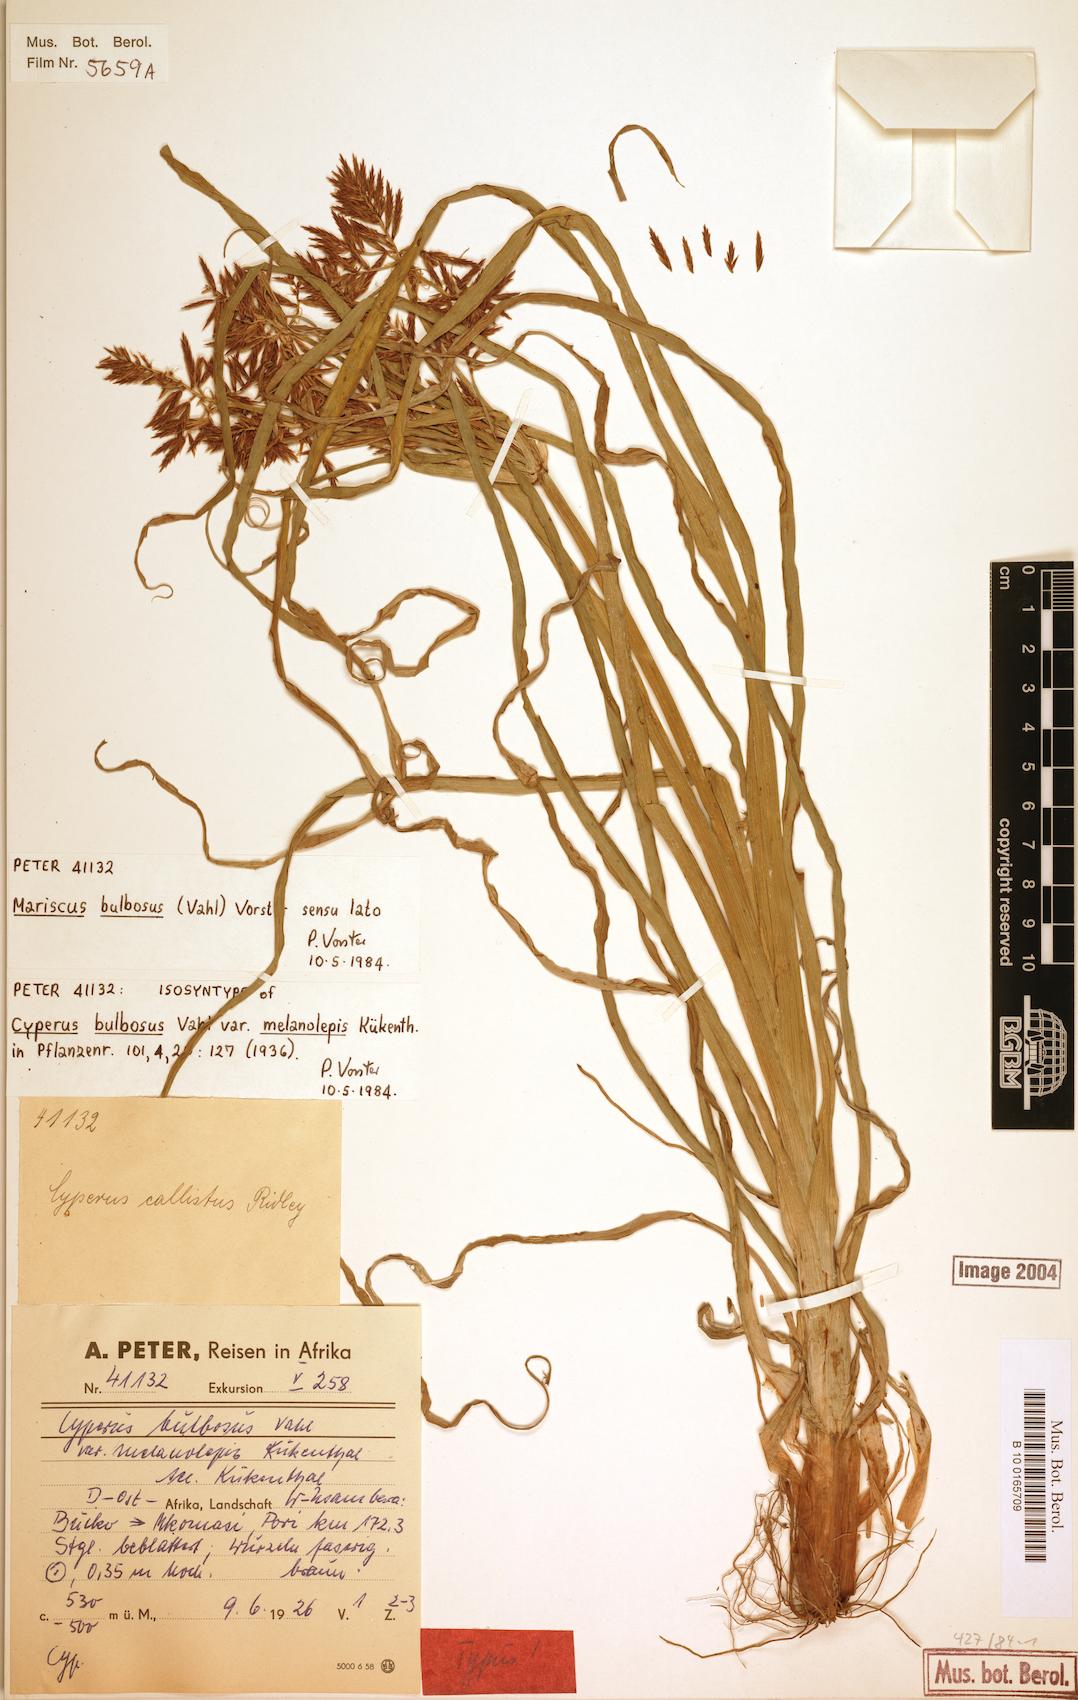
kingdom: Plantae
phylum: Tracheophyta
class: Liliopsida
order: Poales
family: Cyperaceae
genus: Cyperus
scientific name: Cyperus bulbosus
